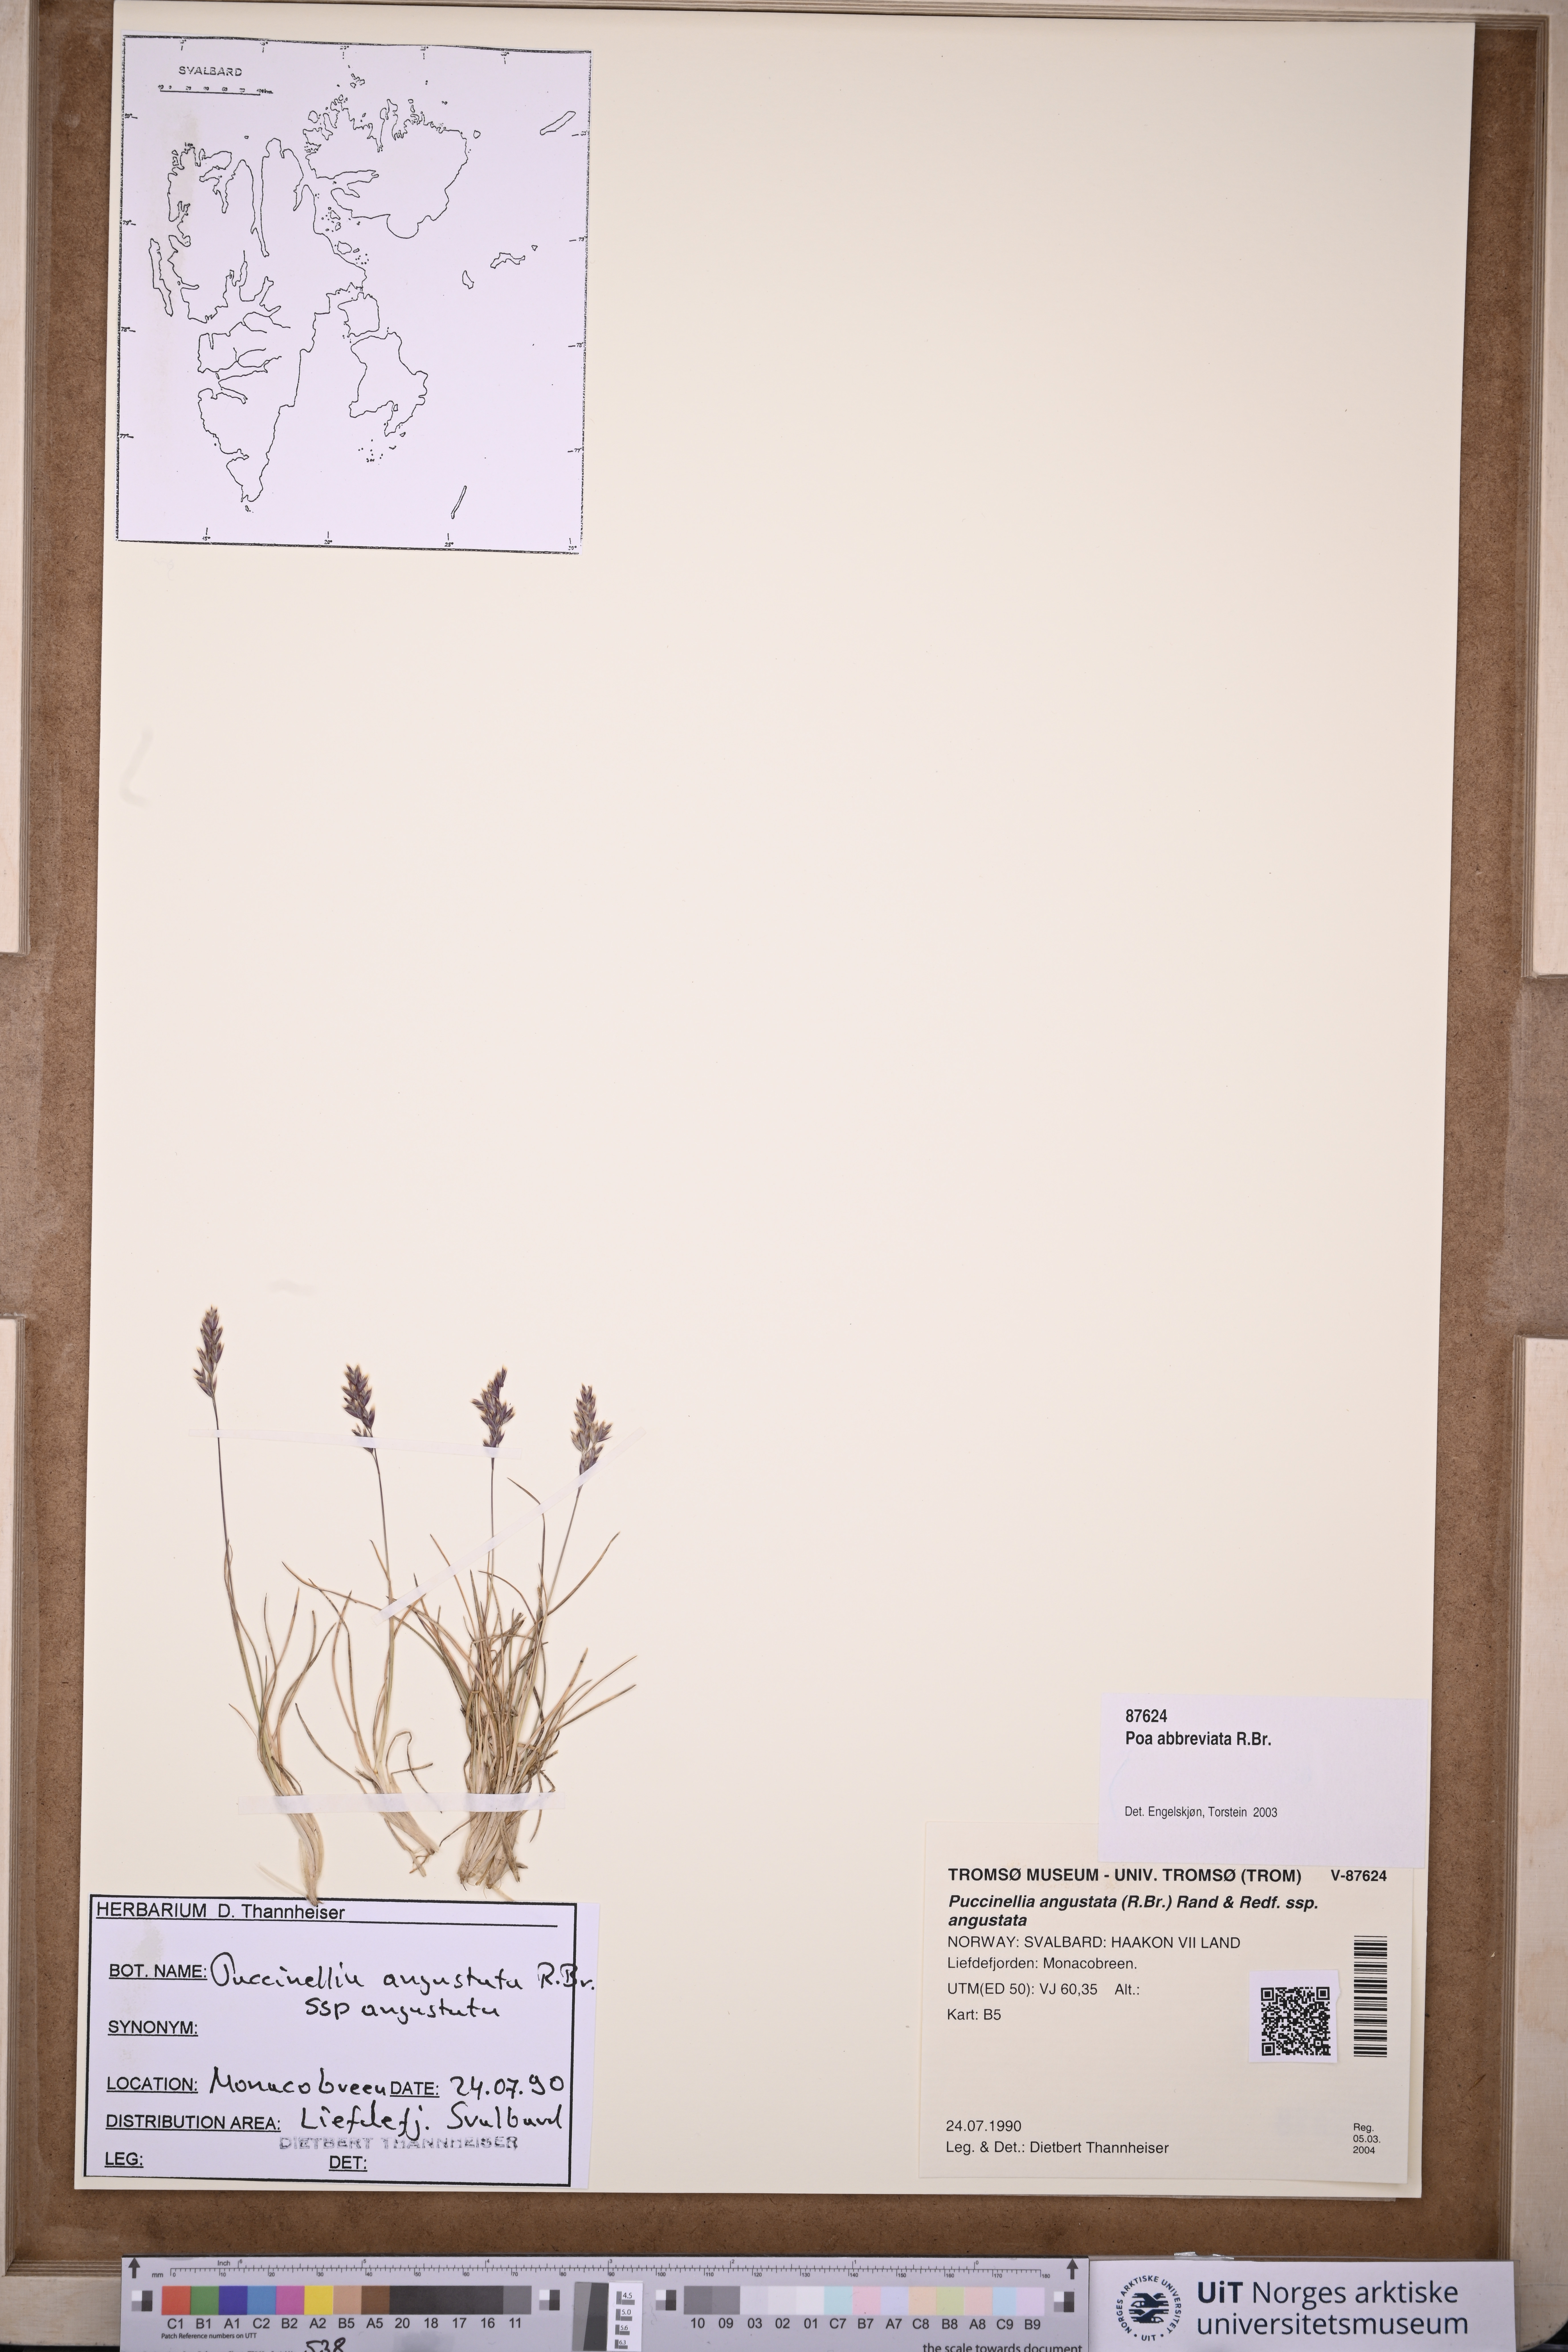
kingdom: Plantae
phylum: Tracheophyta
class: Liliopsida
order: Poales
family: Poaceae
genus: Poa
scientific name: Poa abbreviata
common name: Abbreviated bluegrass
